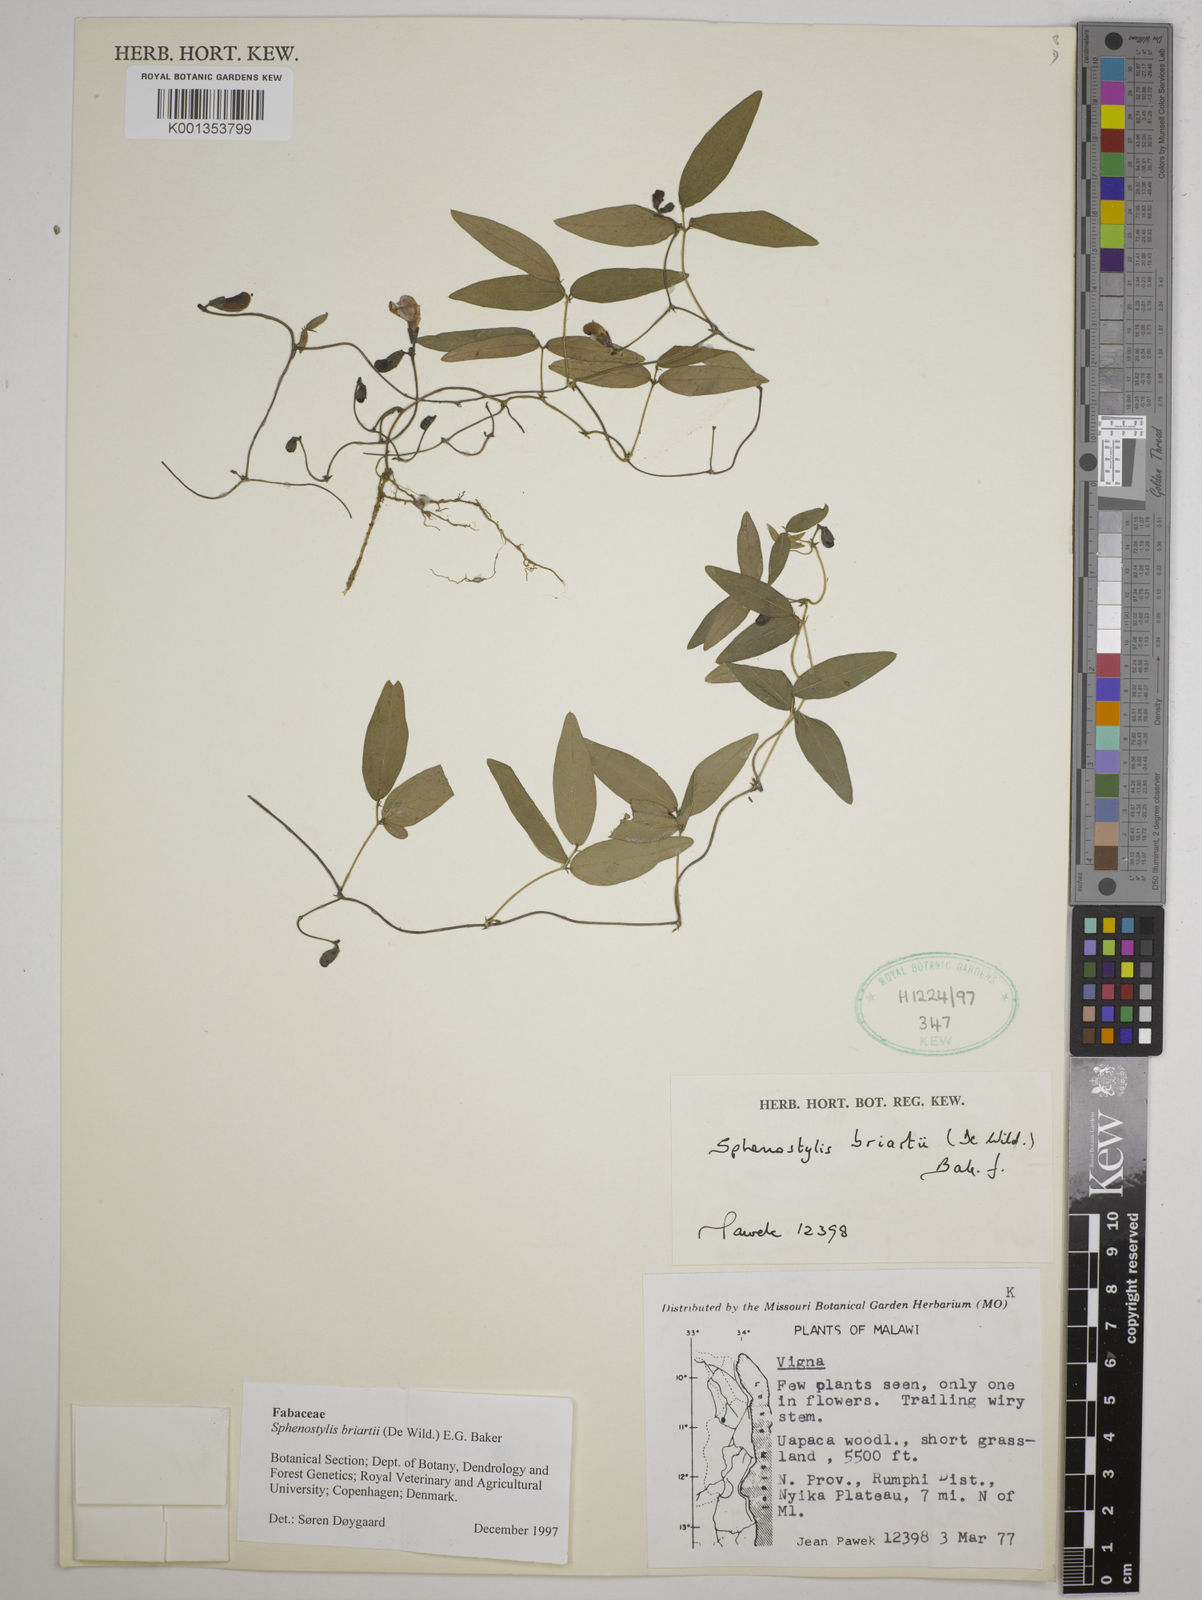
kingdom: Plantae
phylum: Tracheophyta
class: Magnoliopsida
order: Fabales
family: Fabaceae
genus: Sphenostylis
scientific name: Sphenostylis briartii
